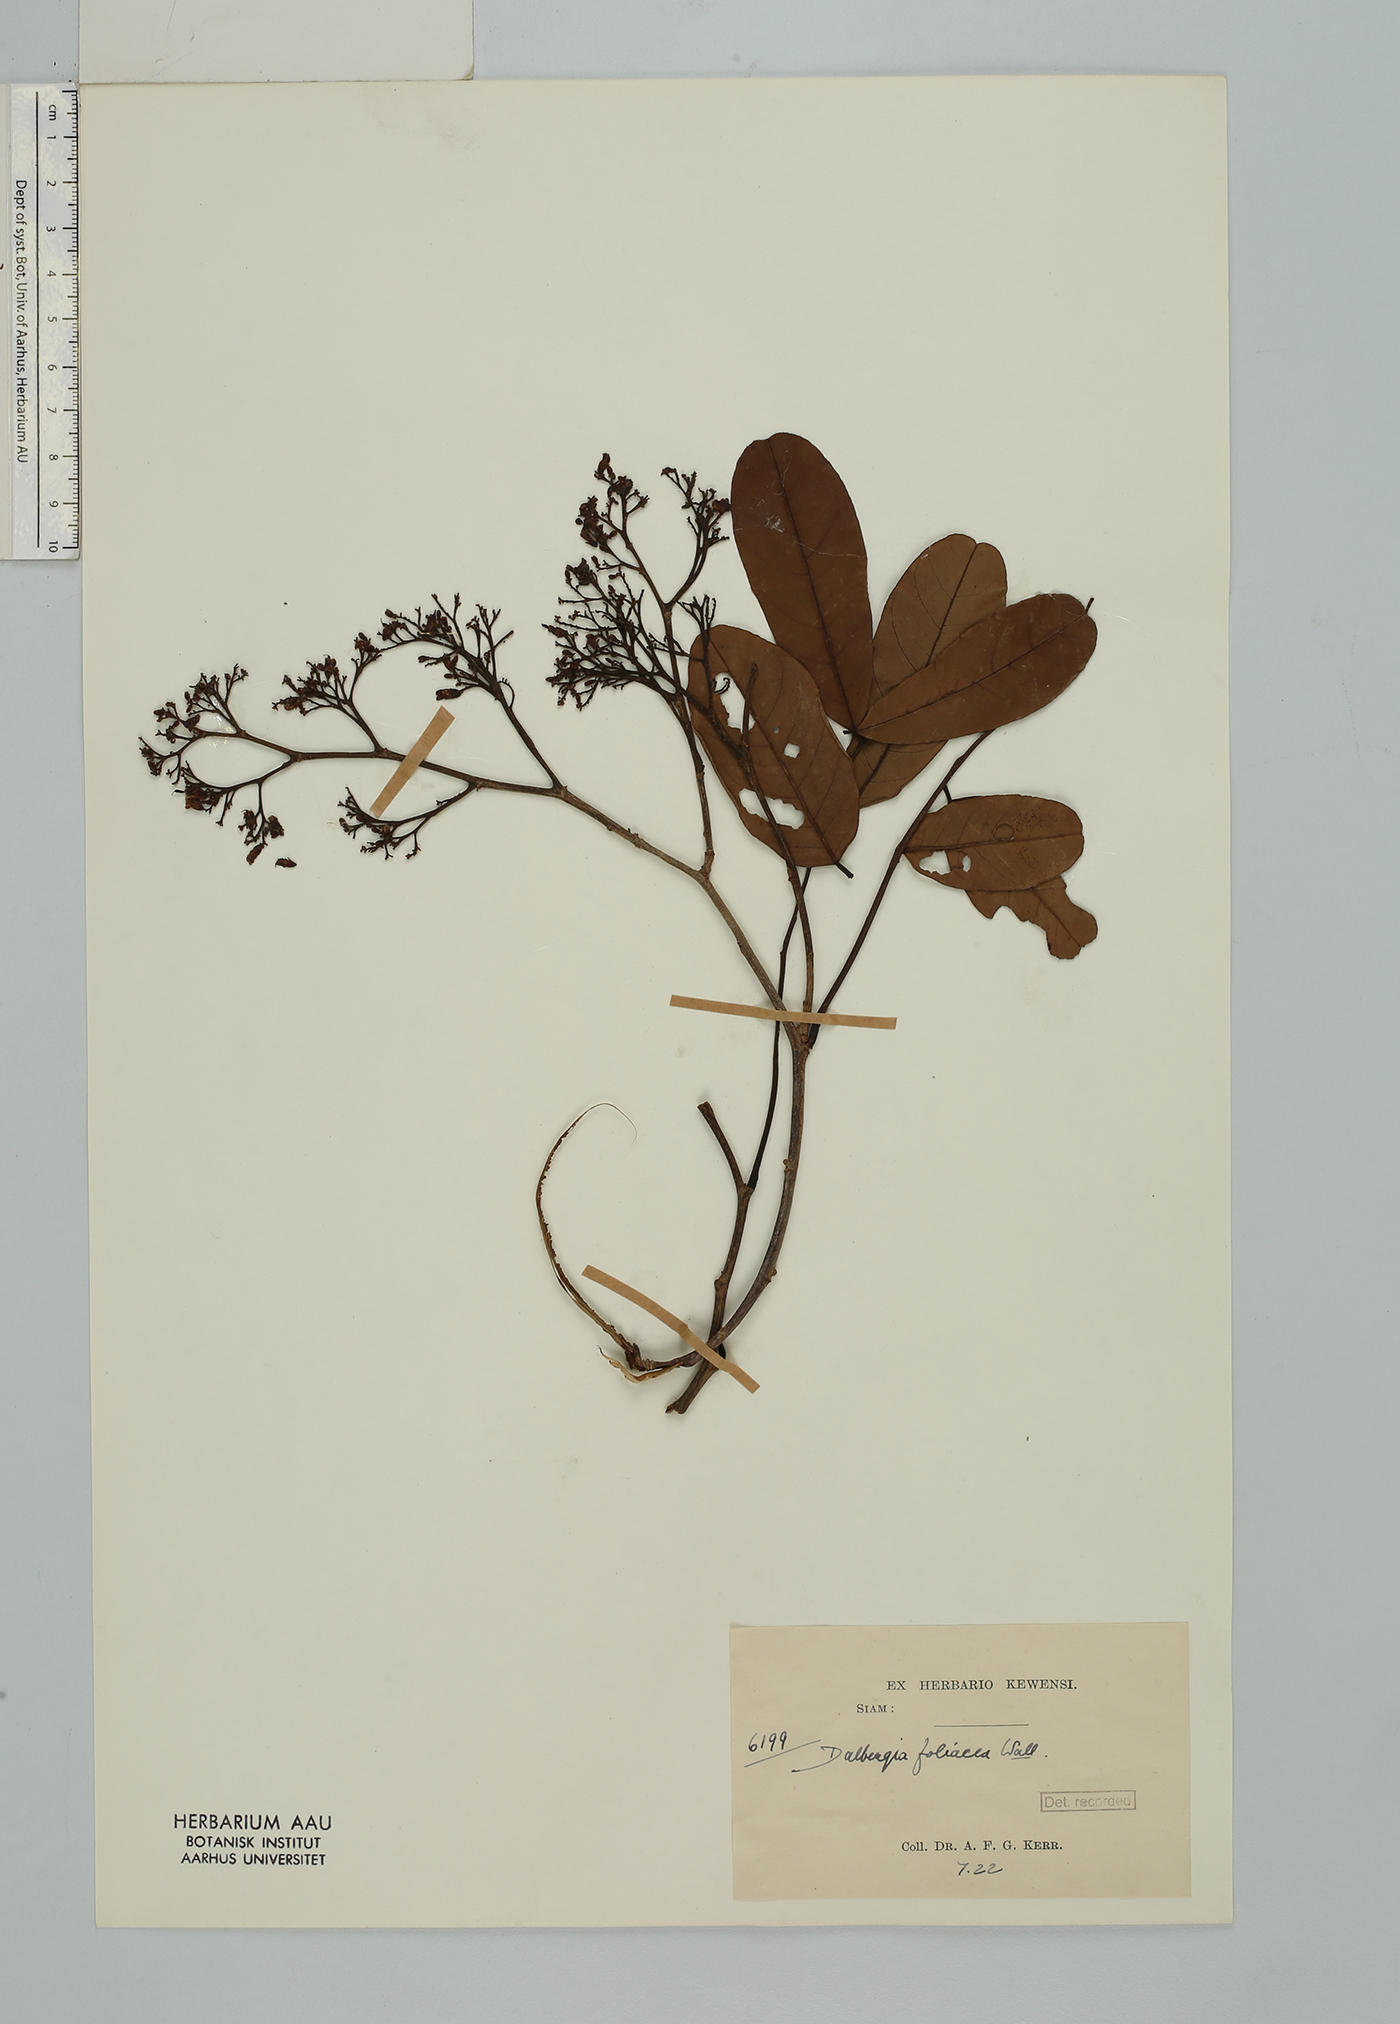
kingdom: Plantae
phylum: Tracheophyta
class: Magnoliopsida
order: Fabales
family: Fabaceae
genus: Dalbergia
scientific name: Dalbergia foliosa
